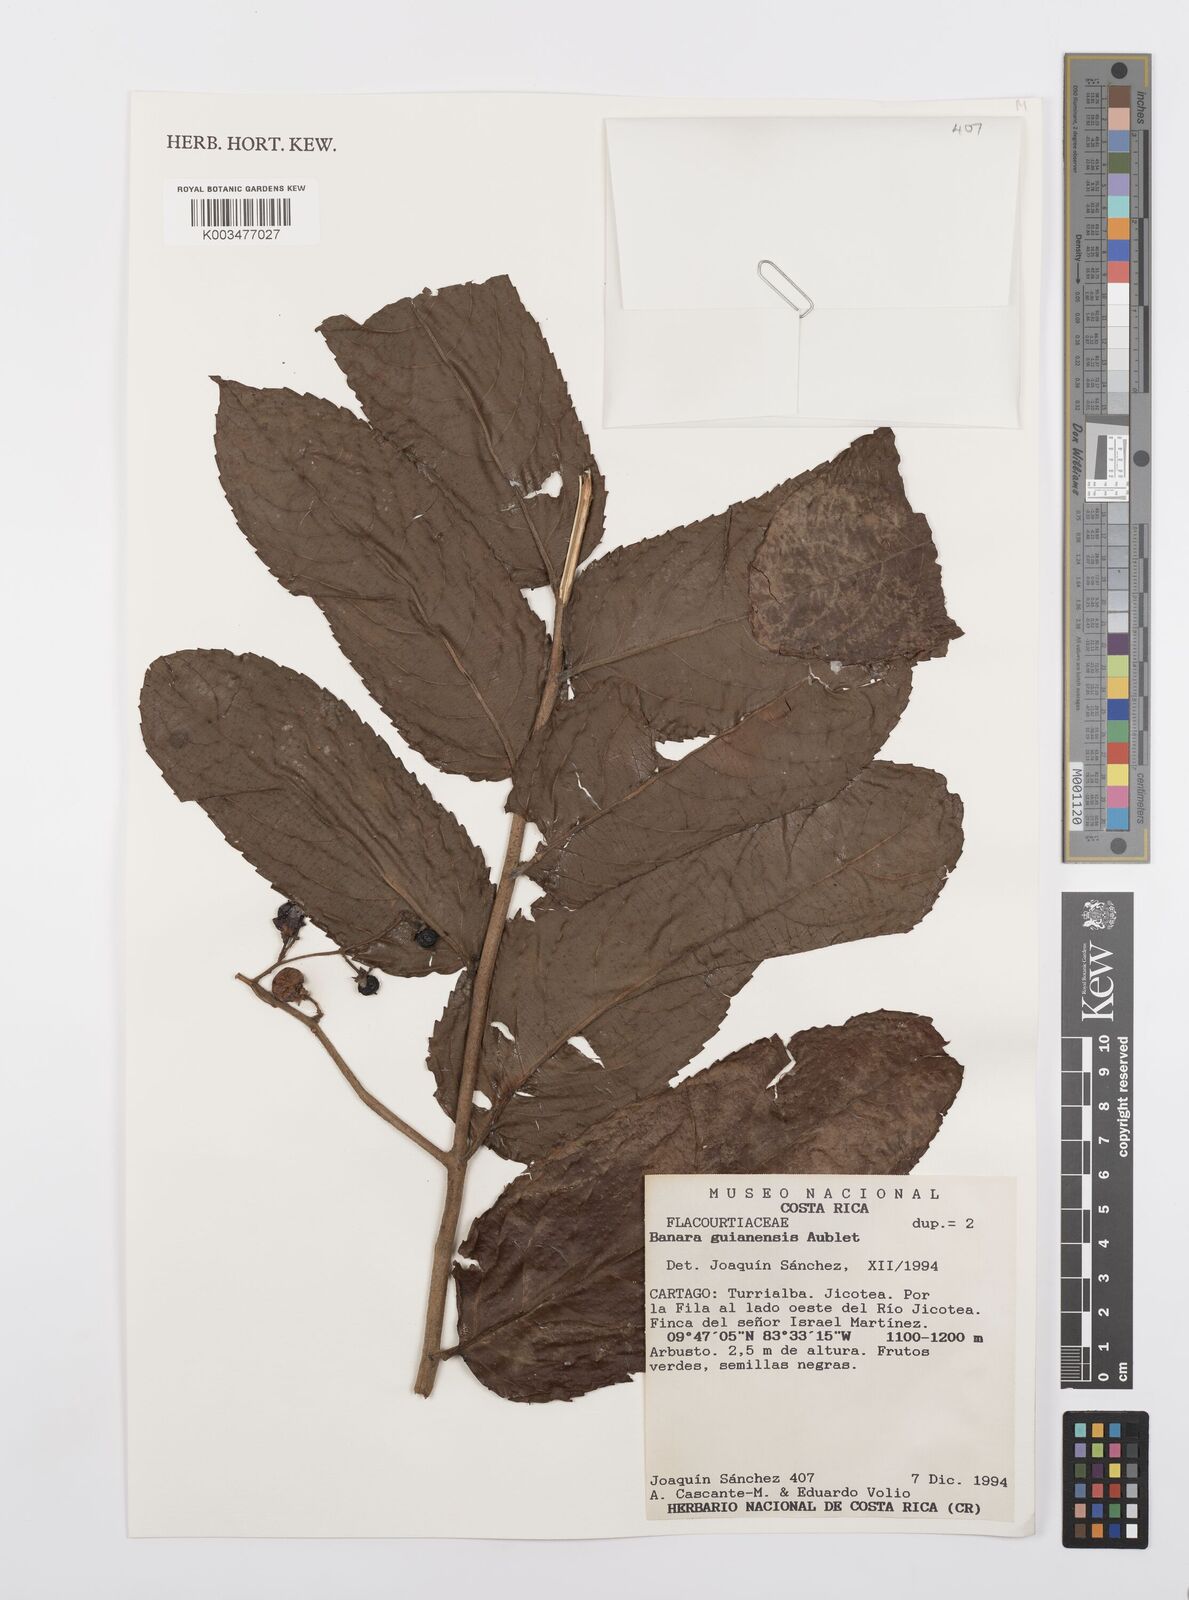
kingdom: Plantae
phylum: Tracheophyta
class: Magnoliopsida
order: Malpighiales
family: Salicaceae
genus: Banara
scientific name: Banara guianensis
